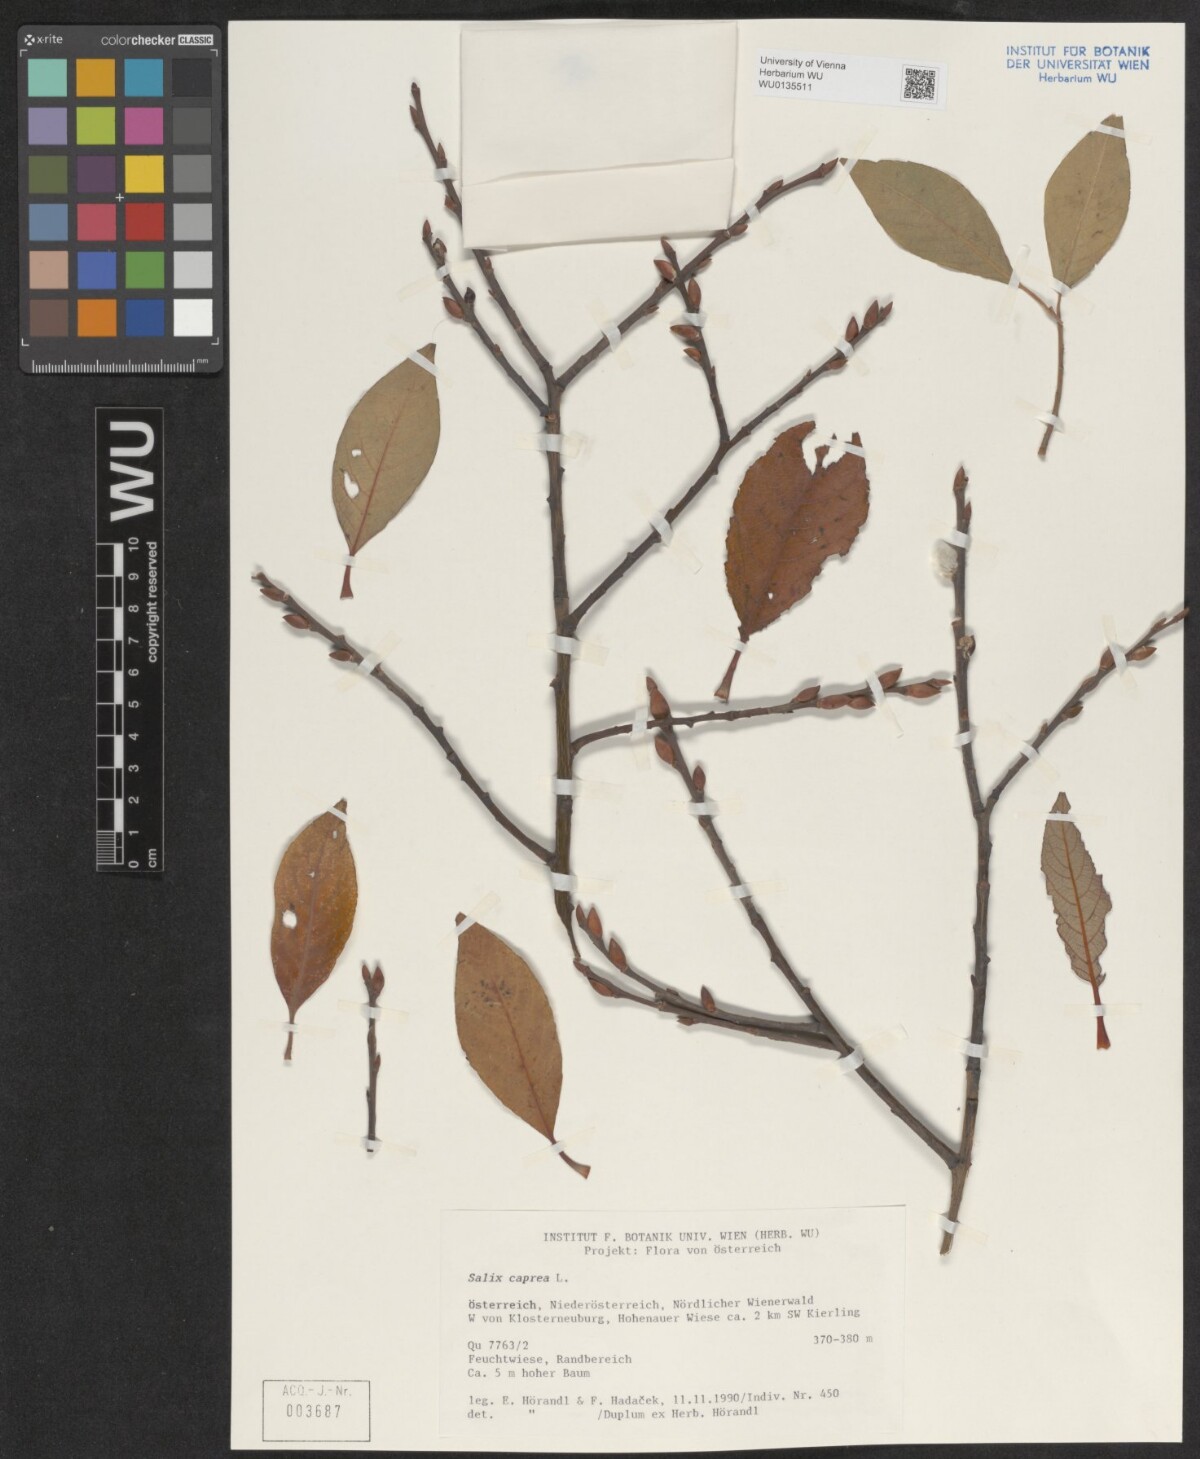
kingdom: Plantae
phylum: Tracheophyta
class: Magnoliopsida
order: Malpighiales
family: Salicaceae
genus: Salix
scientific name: Salix caprea
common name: Goat willow
